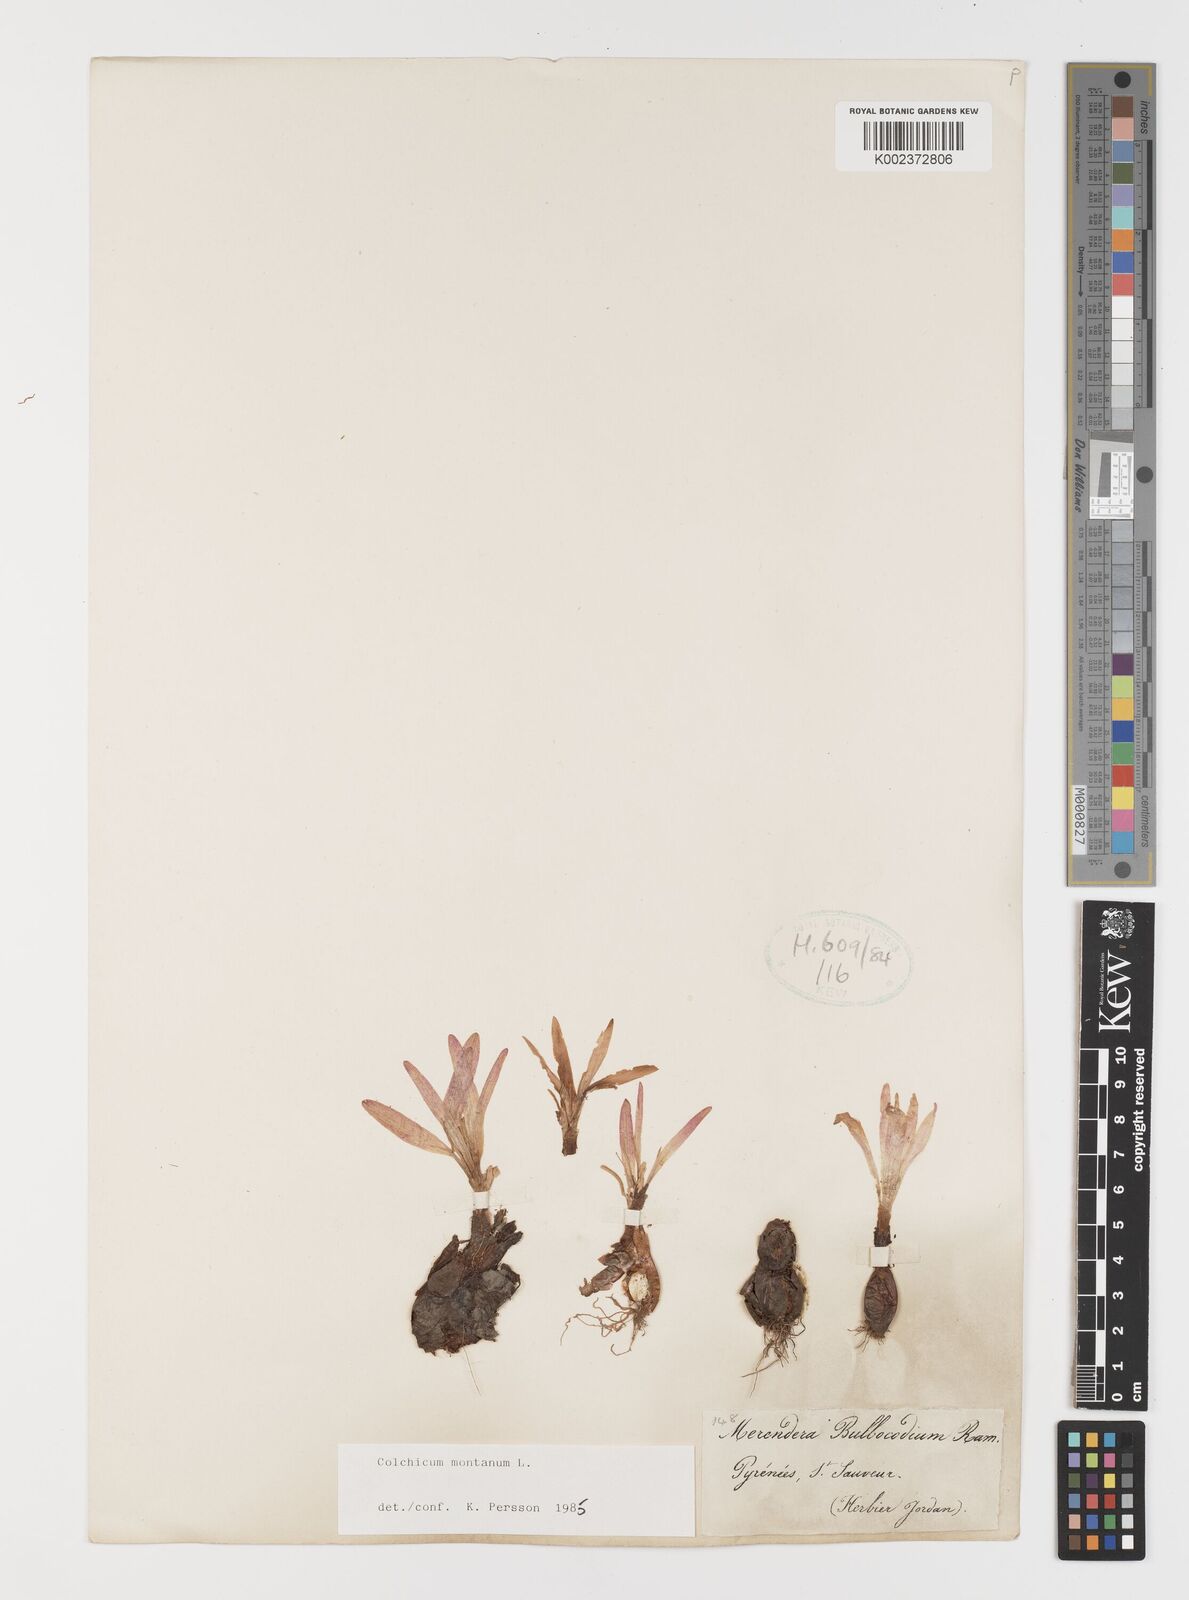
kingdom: Plantae
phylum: Tracheophyta
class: Liliopsida
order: Liliales
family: Colchicaceae
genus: Colchicum
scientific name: Colchicum montanum
